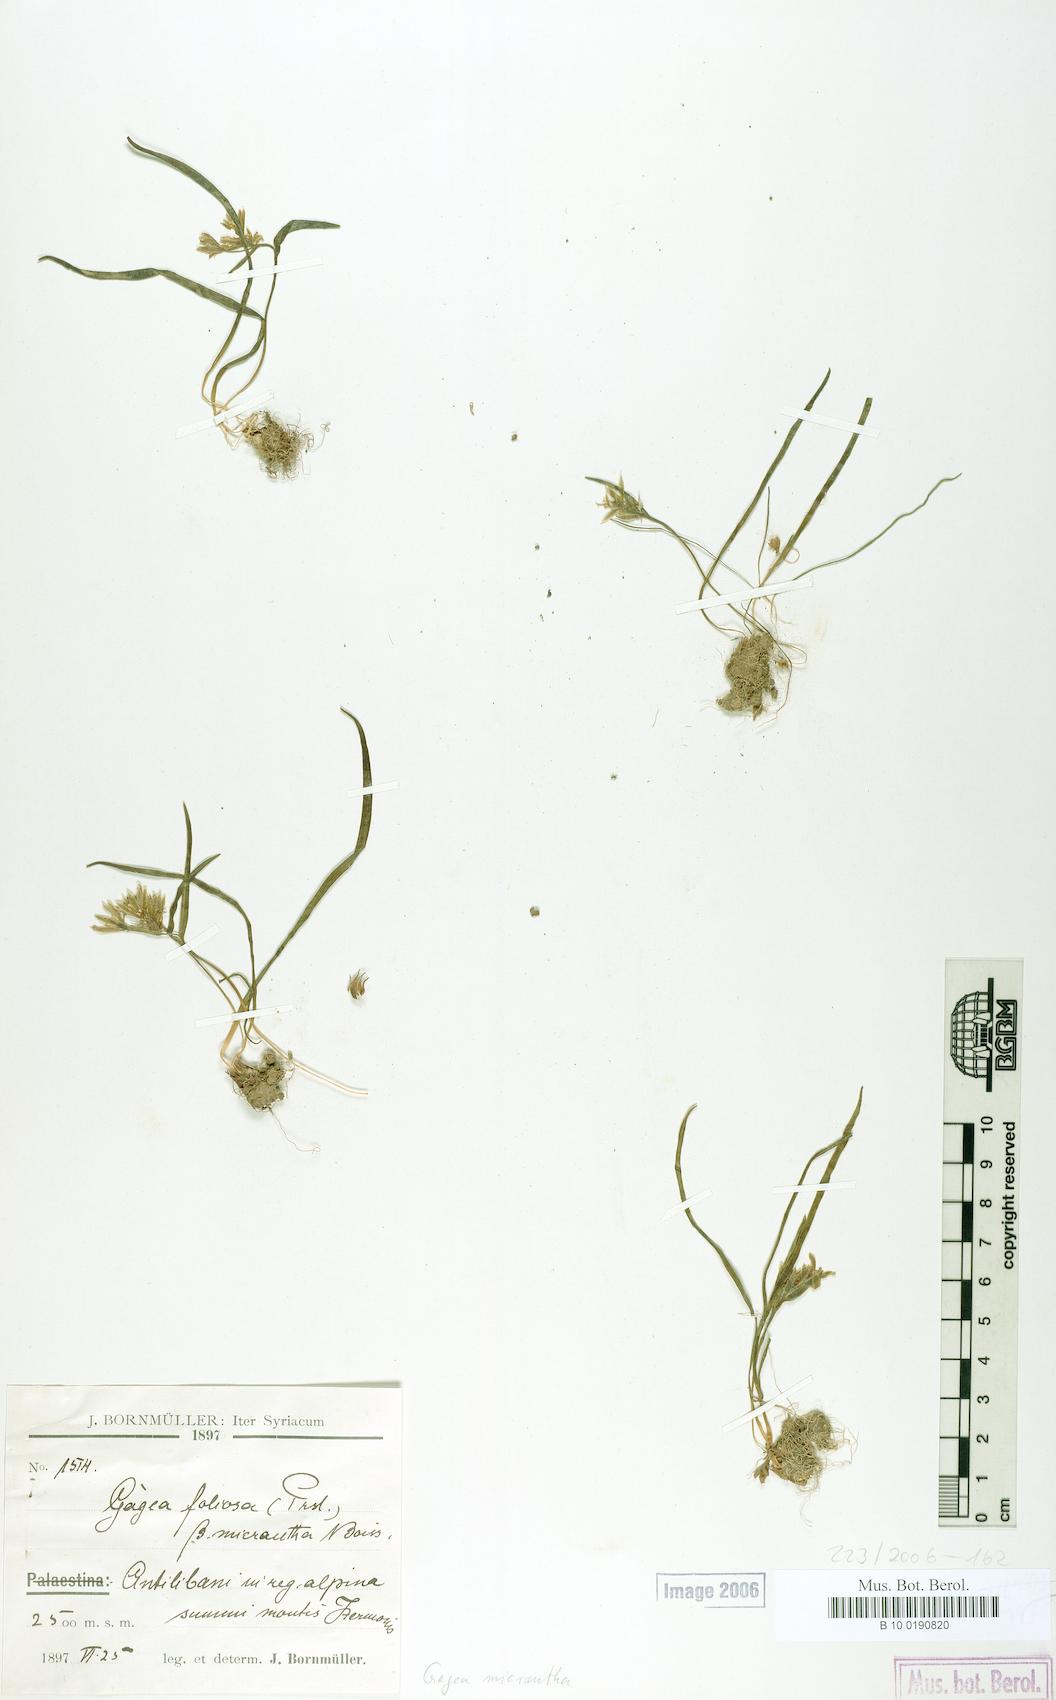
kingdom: Plantae
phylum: Tracheophyta
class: Liliopsida
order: Liliales
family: Liliaceae
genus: Gagea
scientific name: Gagea micrantha
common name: Small-flowered gagea
